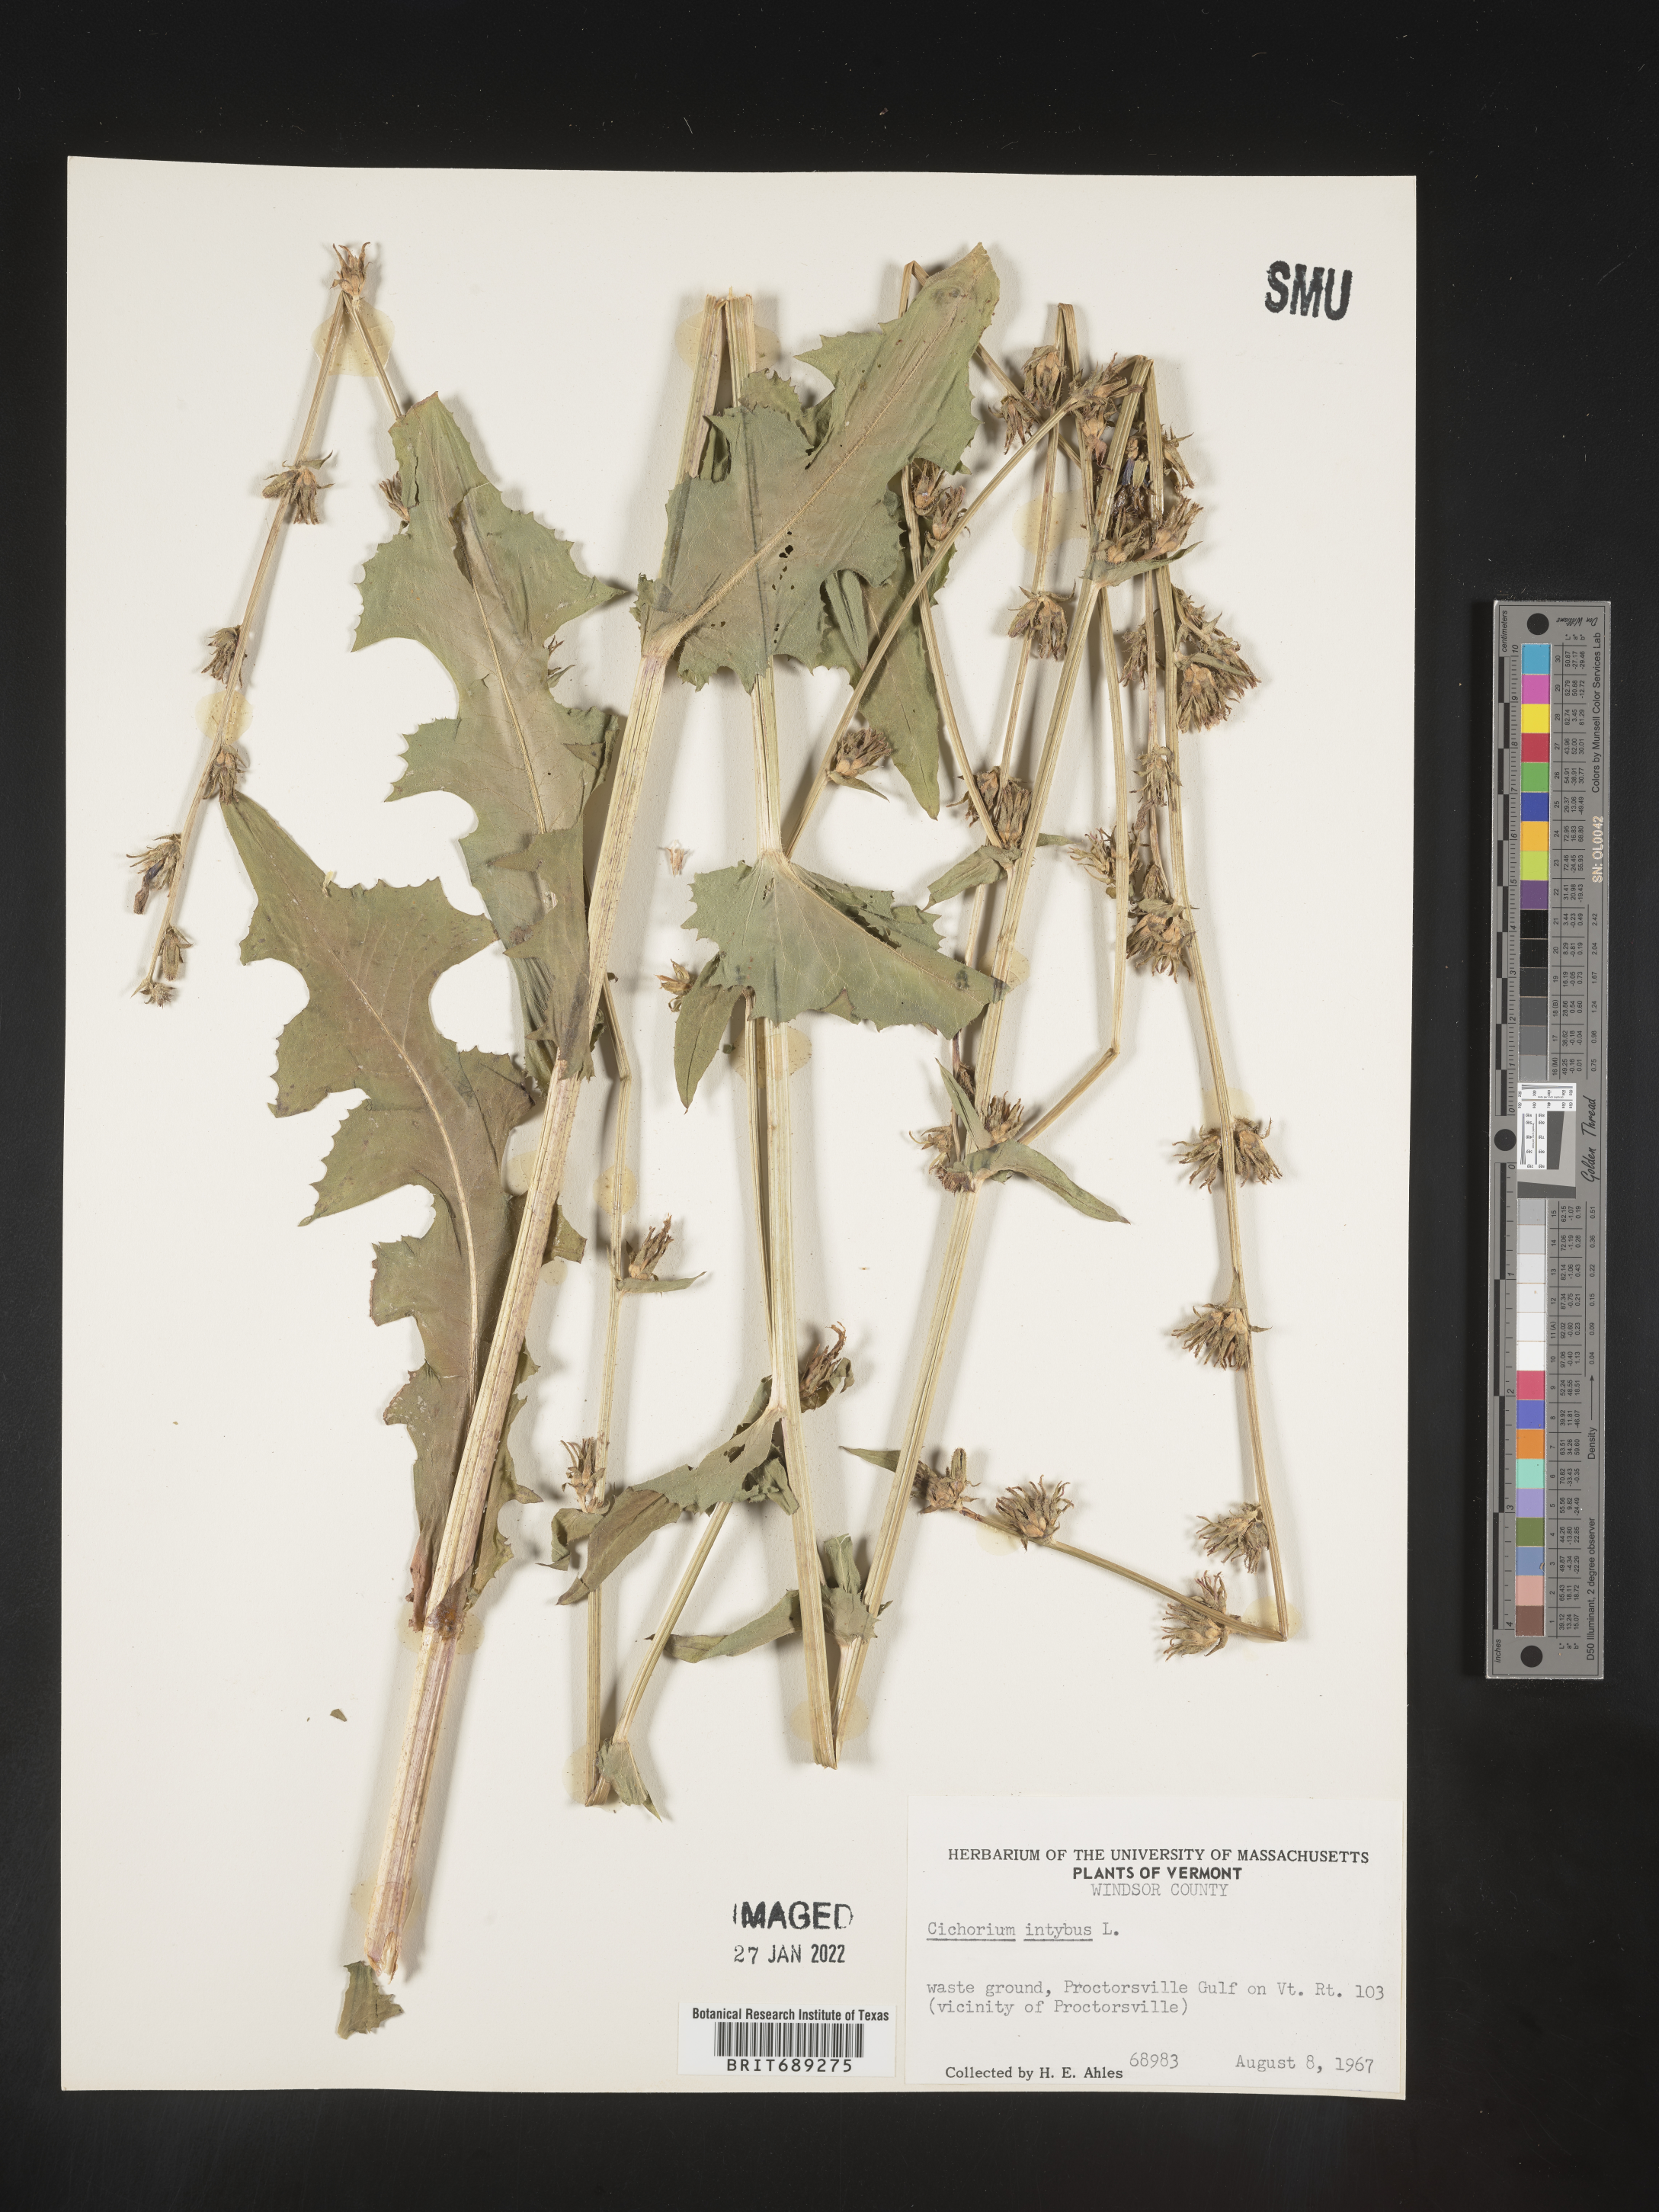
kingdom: Plantae
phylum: Tracheophyta
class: Magnoliopsida
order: Asterales
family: Asteraceae
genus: Cichorium
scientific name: Cichorium intybus
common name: Chicory
